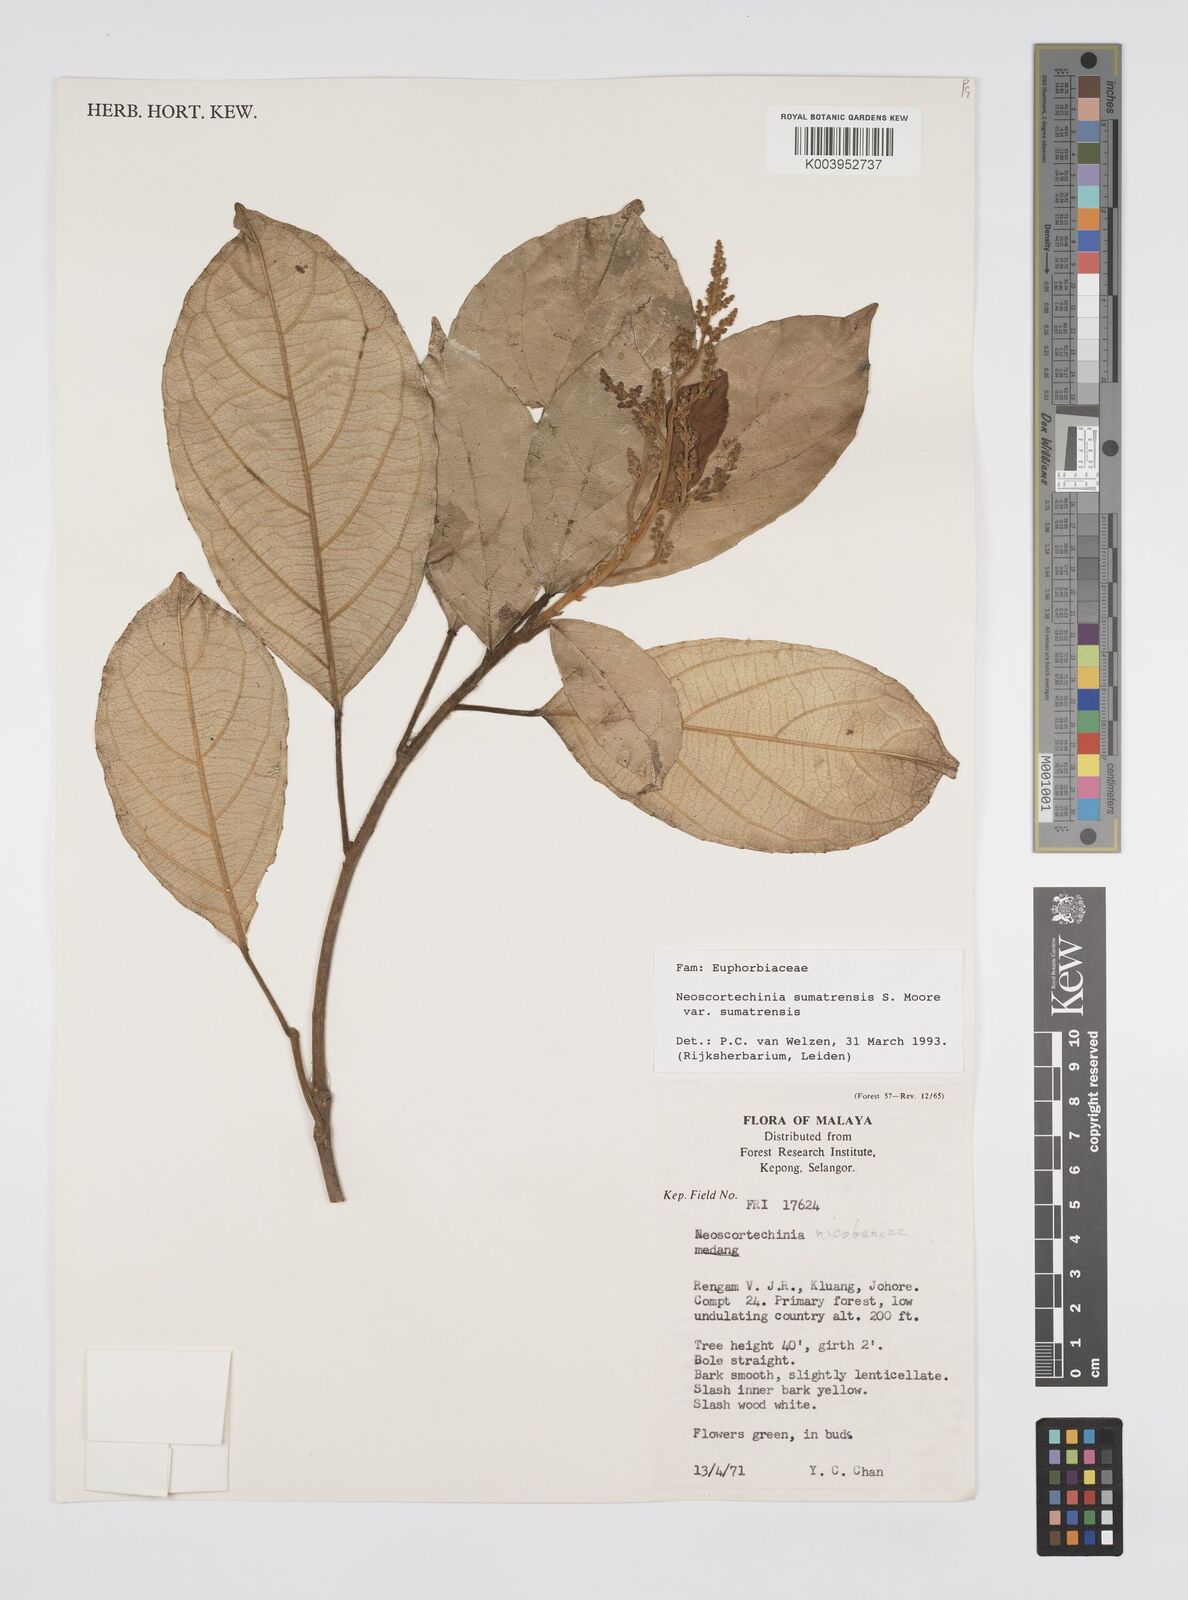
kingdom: Plantae
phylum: Tracheophyta
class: Magnoliopsida
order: Malpighiales
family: Euphorbiaceae
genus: Neoscortechinia
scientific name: Neoscortechinia sumatrensis
